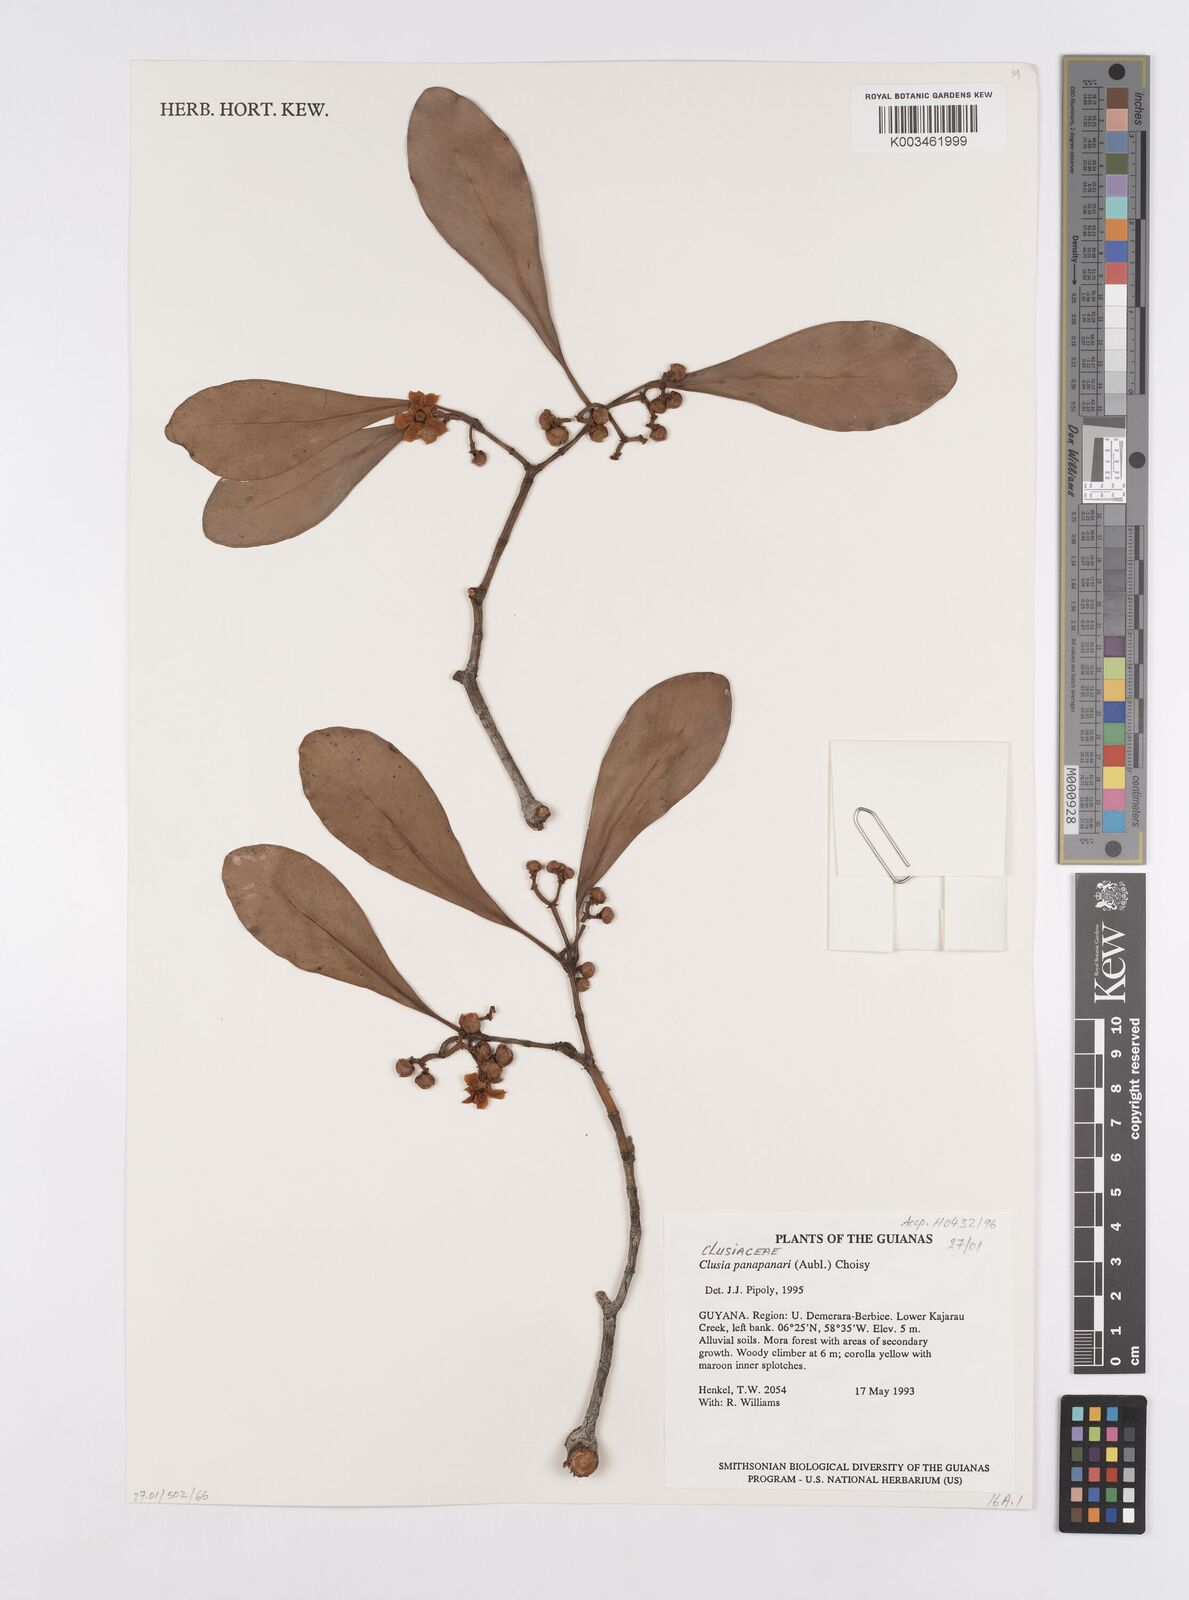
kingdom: Plantae
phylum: Tracheophyta
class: Magnoliopsida
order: Malpighiales
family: Clusiaceae
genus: Clusia
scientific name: Clusia panapanari
